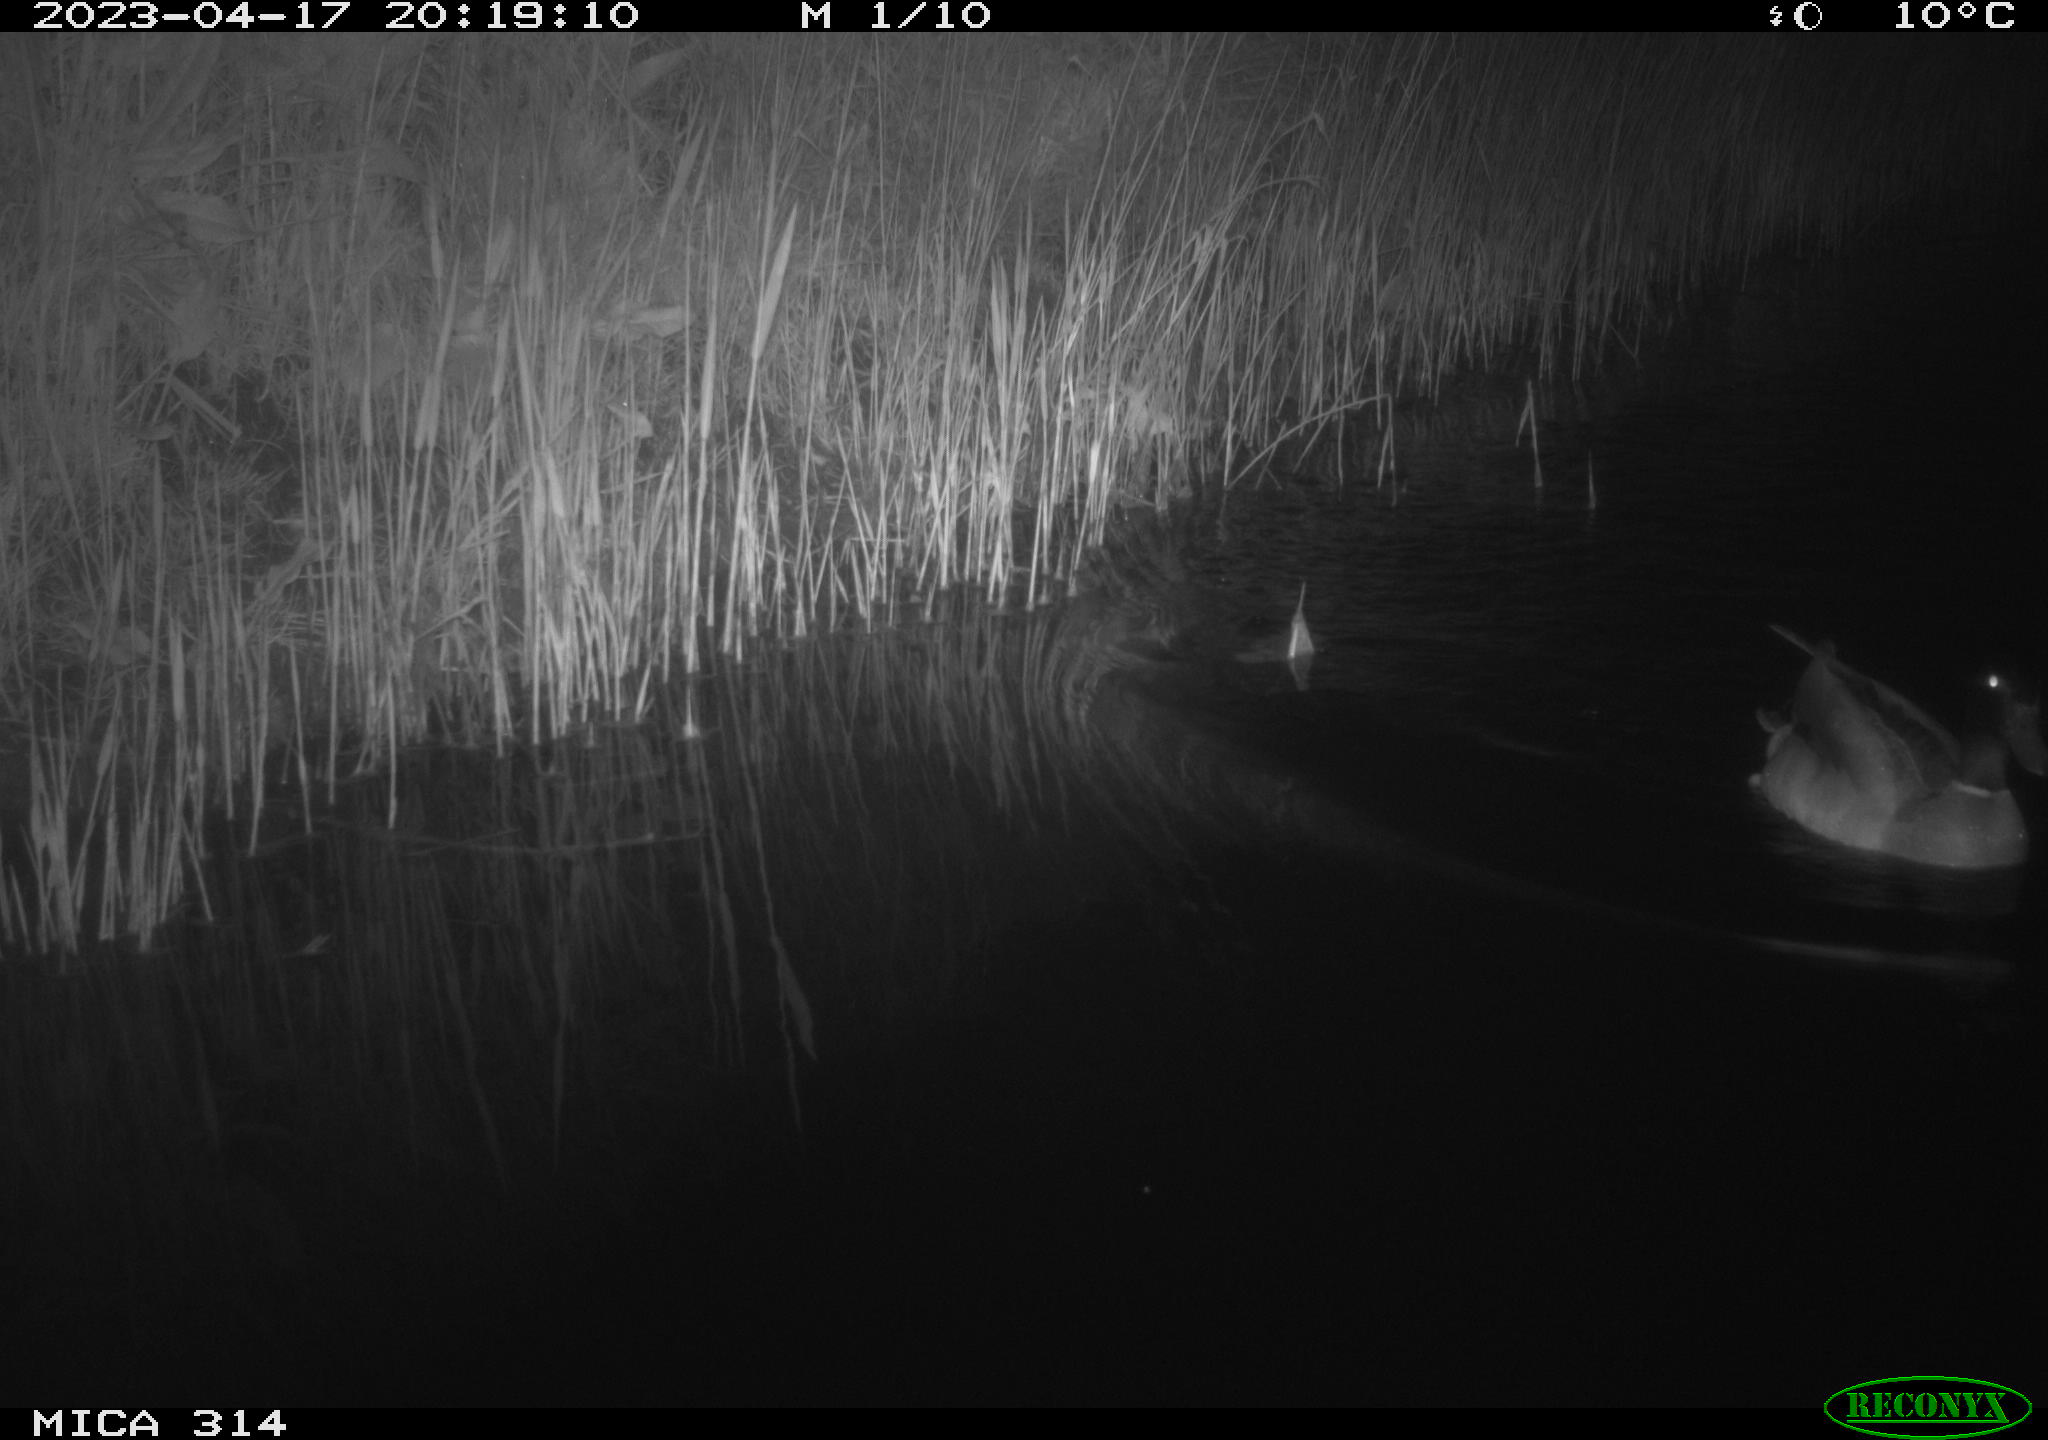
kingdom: Animalia
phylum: Chordata
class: Aves
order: Anseriformes
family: Anatidae
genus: Anas
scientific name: Anas
